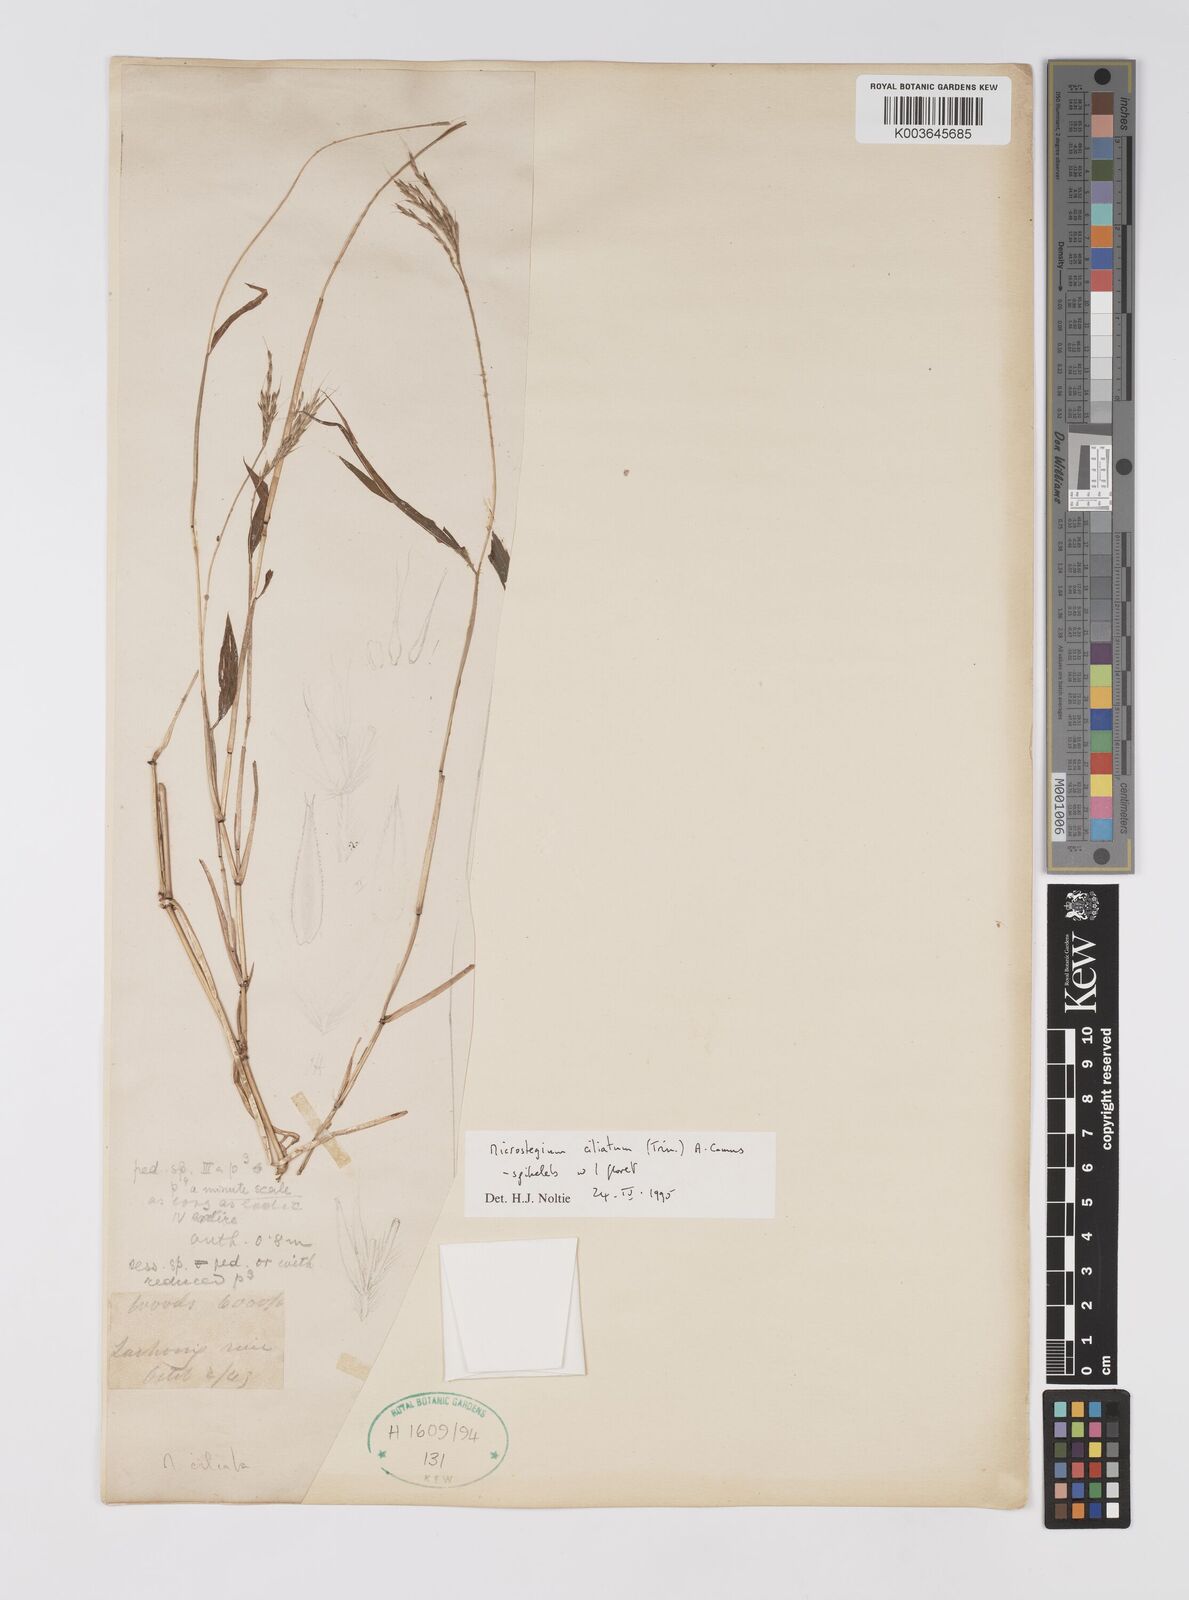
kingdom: Plantae
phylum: Tracheophyta
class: Liliopsida
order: Poales
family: Poaceae
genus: Microstegium
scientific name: Microstegium fasciculatum
